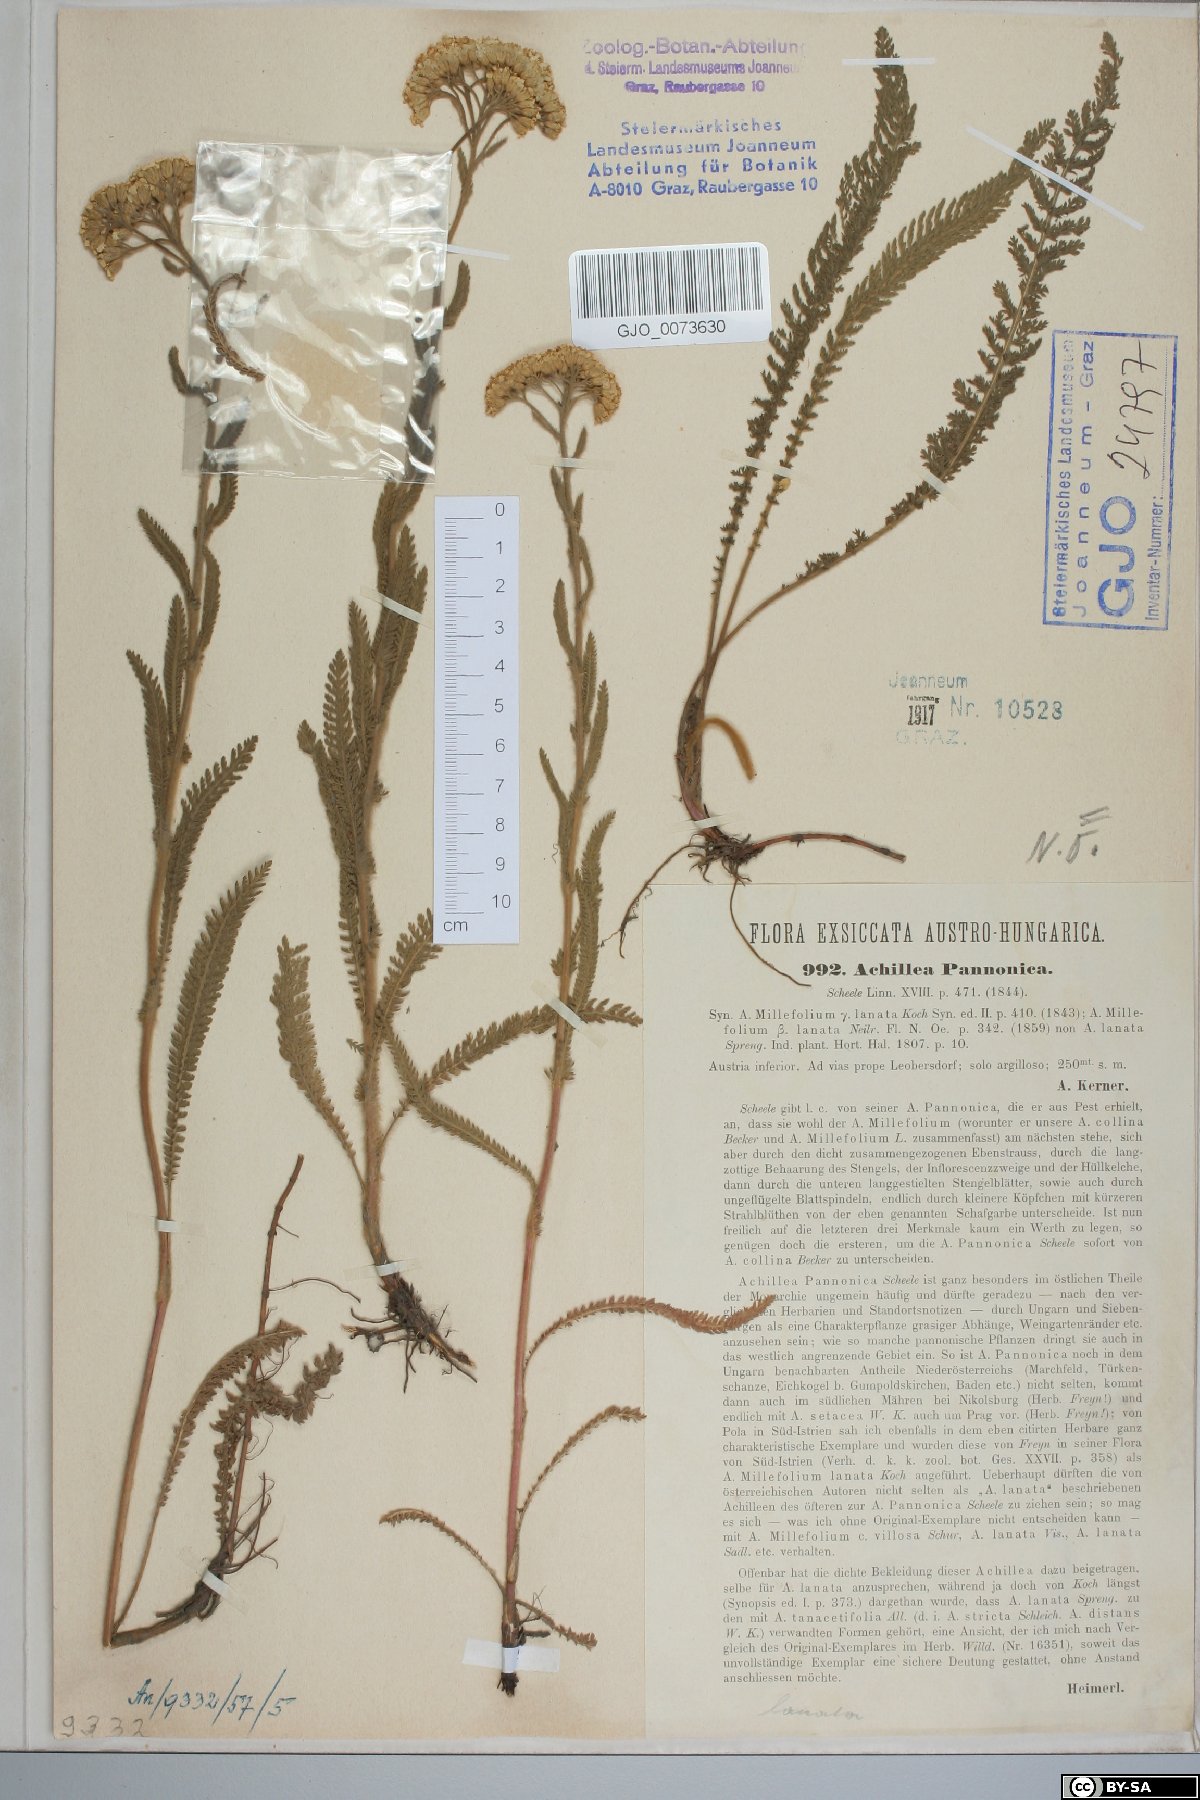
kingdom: Plantae
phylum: Tracheophyta
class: Magnoliopsida
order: Asterales
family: Asteraceae
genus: Achillea
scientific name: Achillea pannonica
